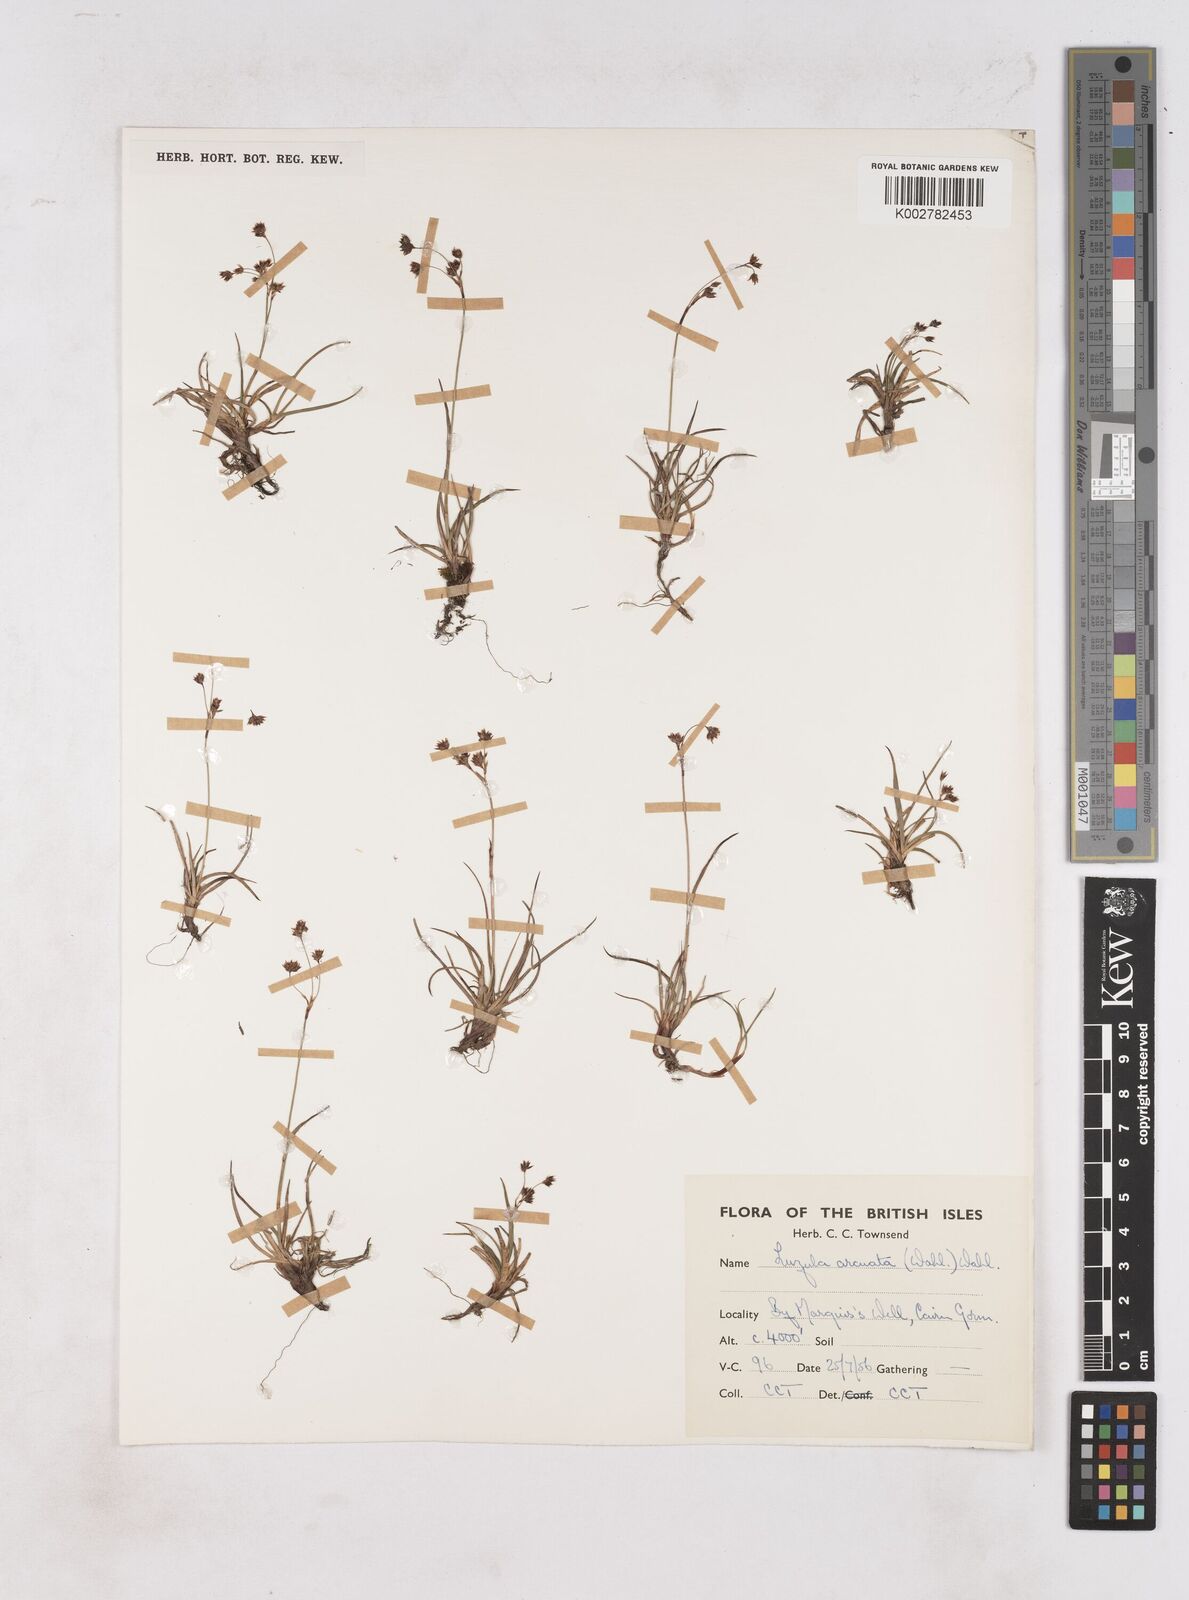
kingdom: Plantae
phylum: Tracheophyta
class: Liliopsida
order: Poales
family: Juncaceae
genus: Luzula
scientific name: Luzula arcuata
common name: Curved wood-rush
